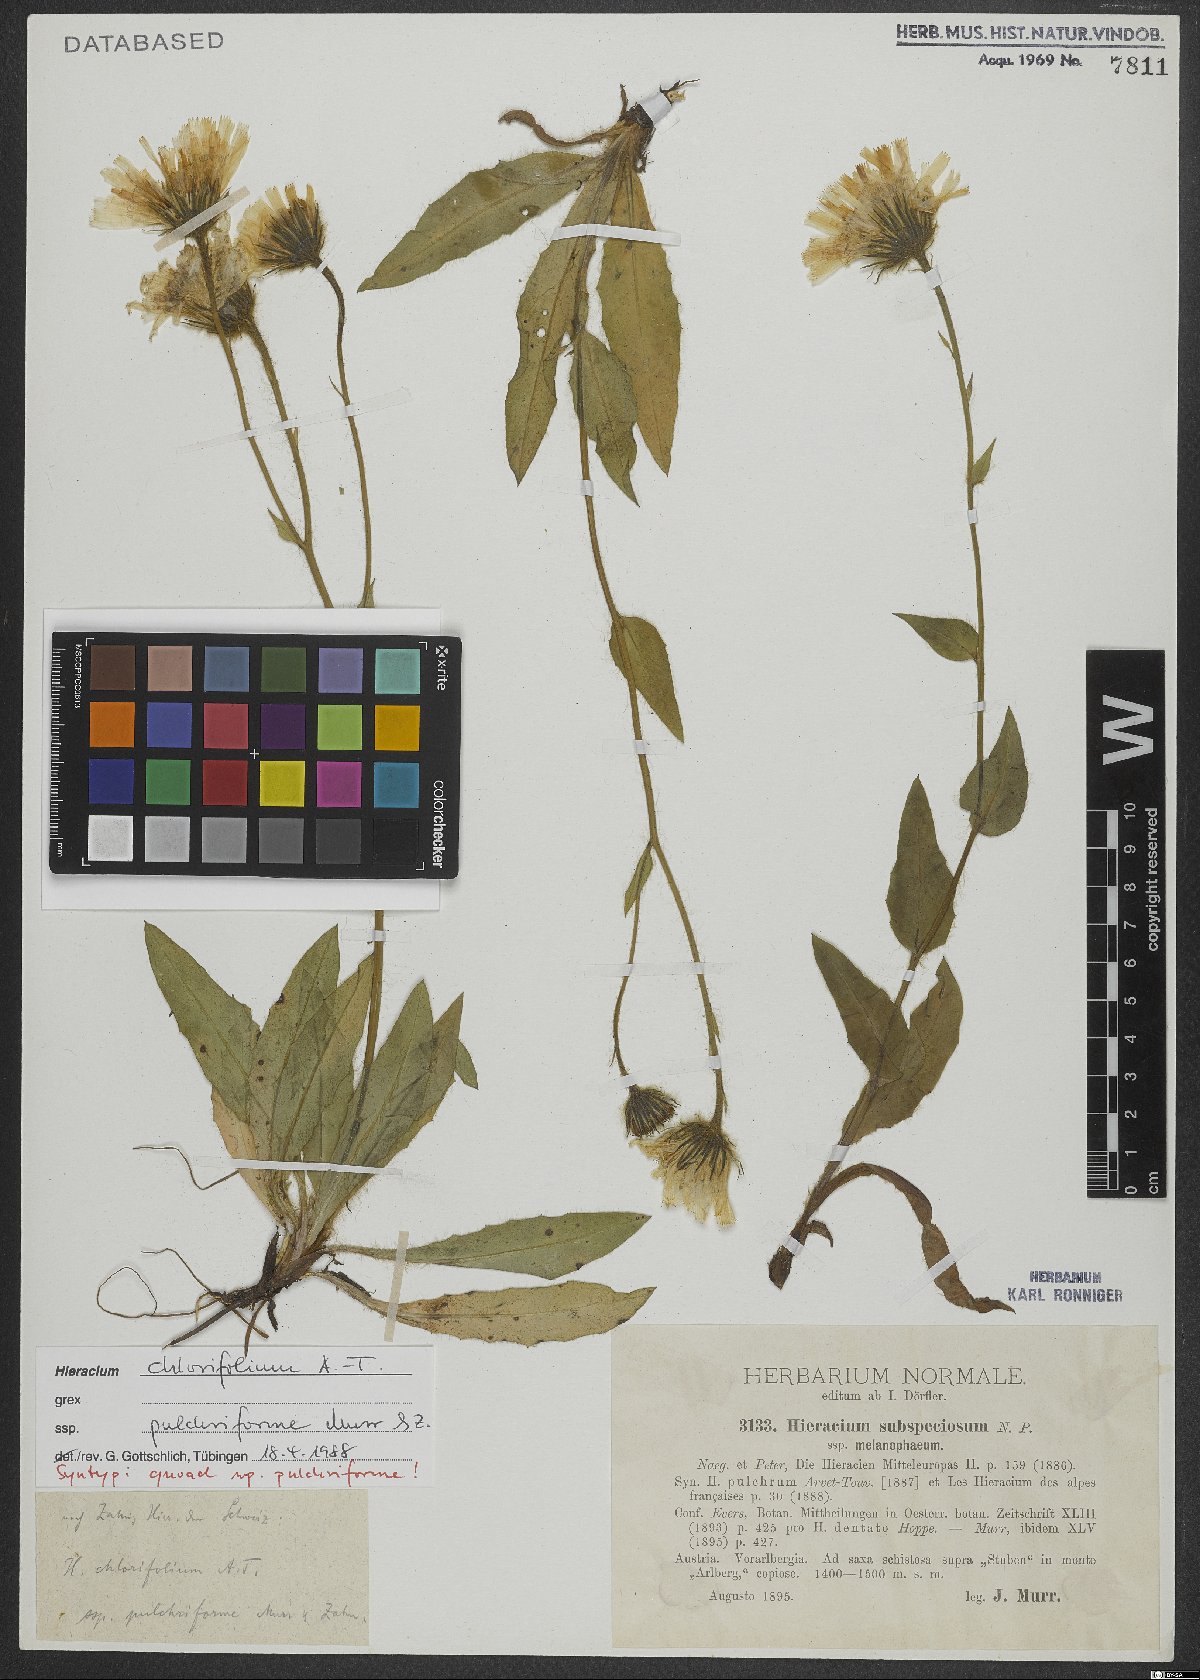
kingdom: Plantae
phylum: Tracheophyta
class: Magnoliopsida
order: Asterales
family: Asteraceae
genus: Hieracium
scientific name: Hieracium chlorifolium
